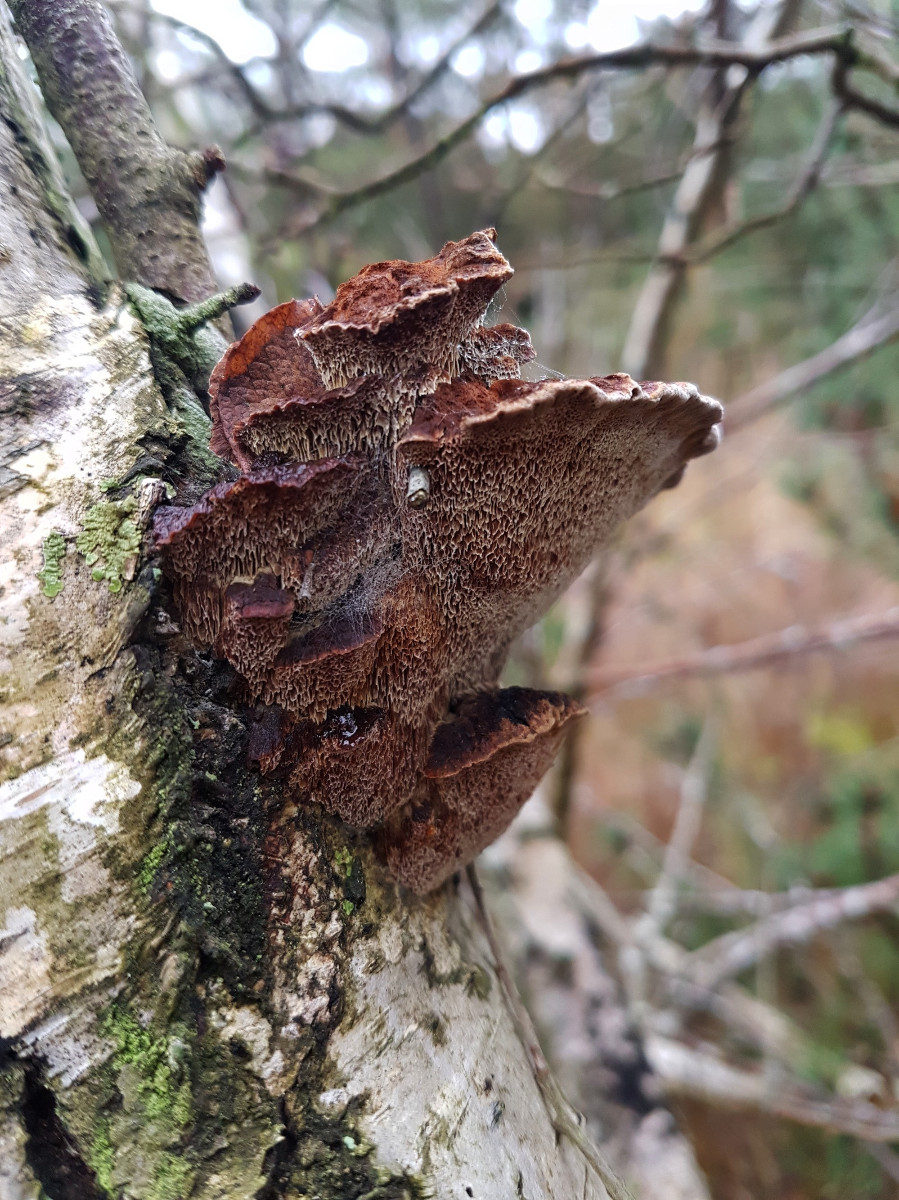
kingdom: Fungi
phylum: Basidiomycota
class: Agaricomycetes
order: Hymenochaetales
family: Hymenochaetaceae
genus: Xanthoporia
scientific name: Xanthoporia radiata
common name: elle-spejlporesvamp
